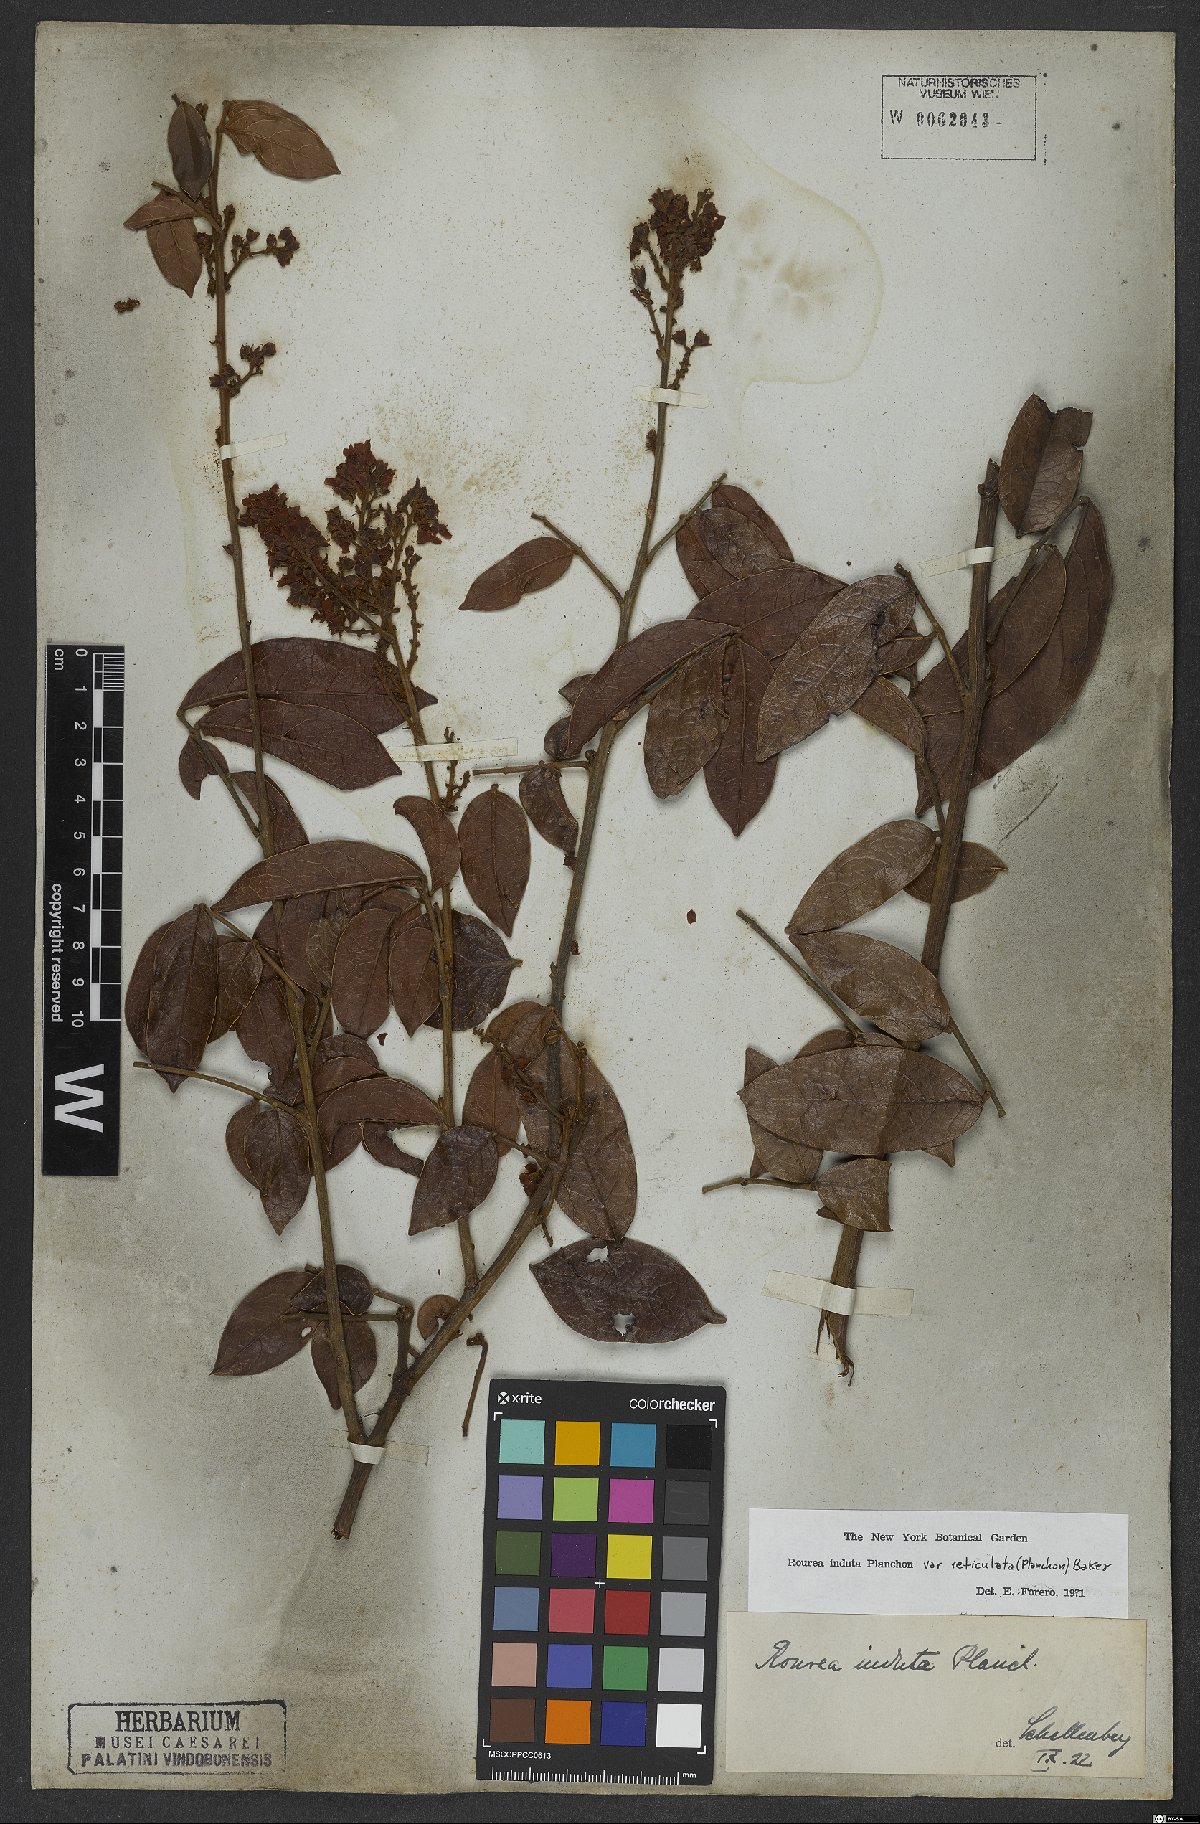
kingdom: Plantae
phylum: Tracheophyta
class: Magnoliopsida
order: Oxalidales
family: Connaraceae
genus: Rourea
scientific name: Rourea induta
